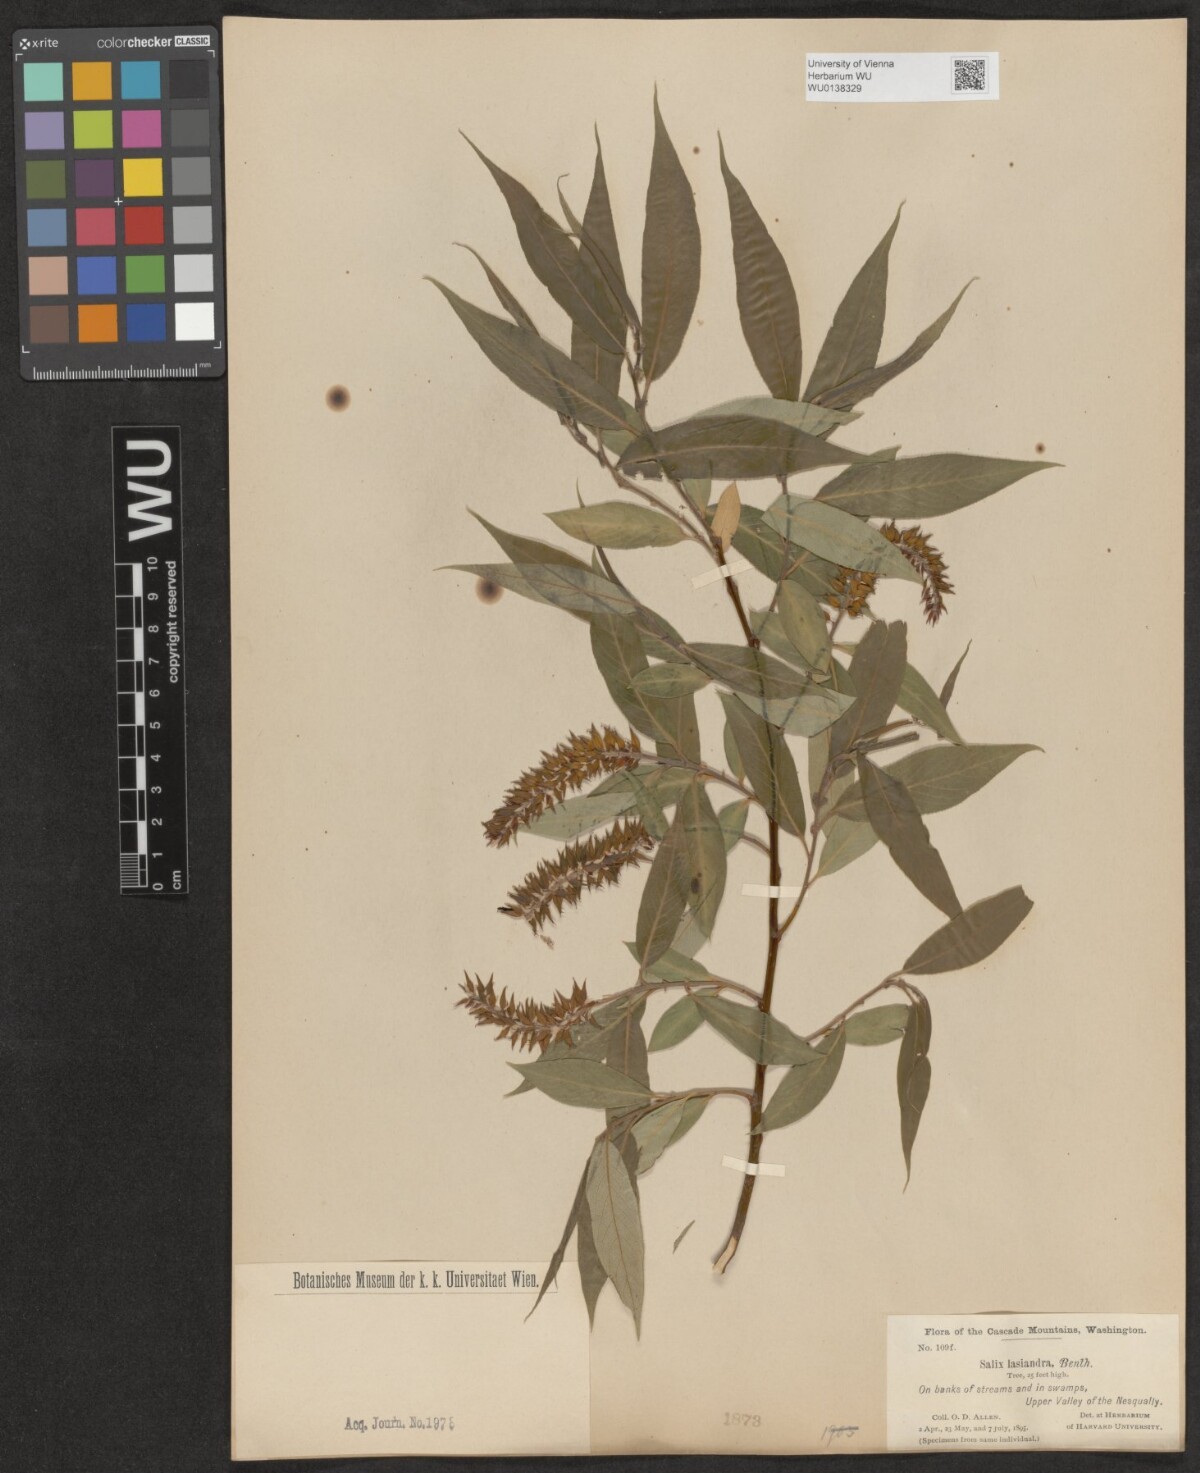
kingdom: Plantae
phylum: Tracheophyta
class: Magnoliopsida
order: Malpighiales
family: Salicaceae
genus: Salix
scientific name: Salix lucida
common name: Shining willow
